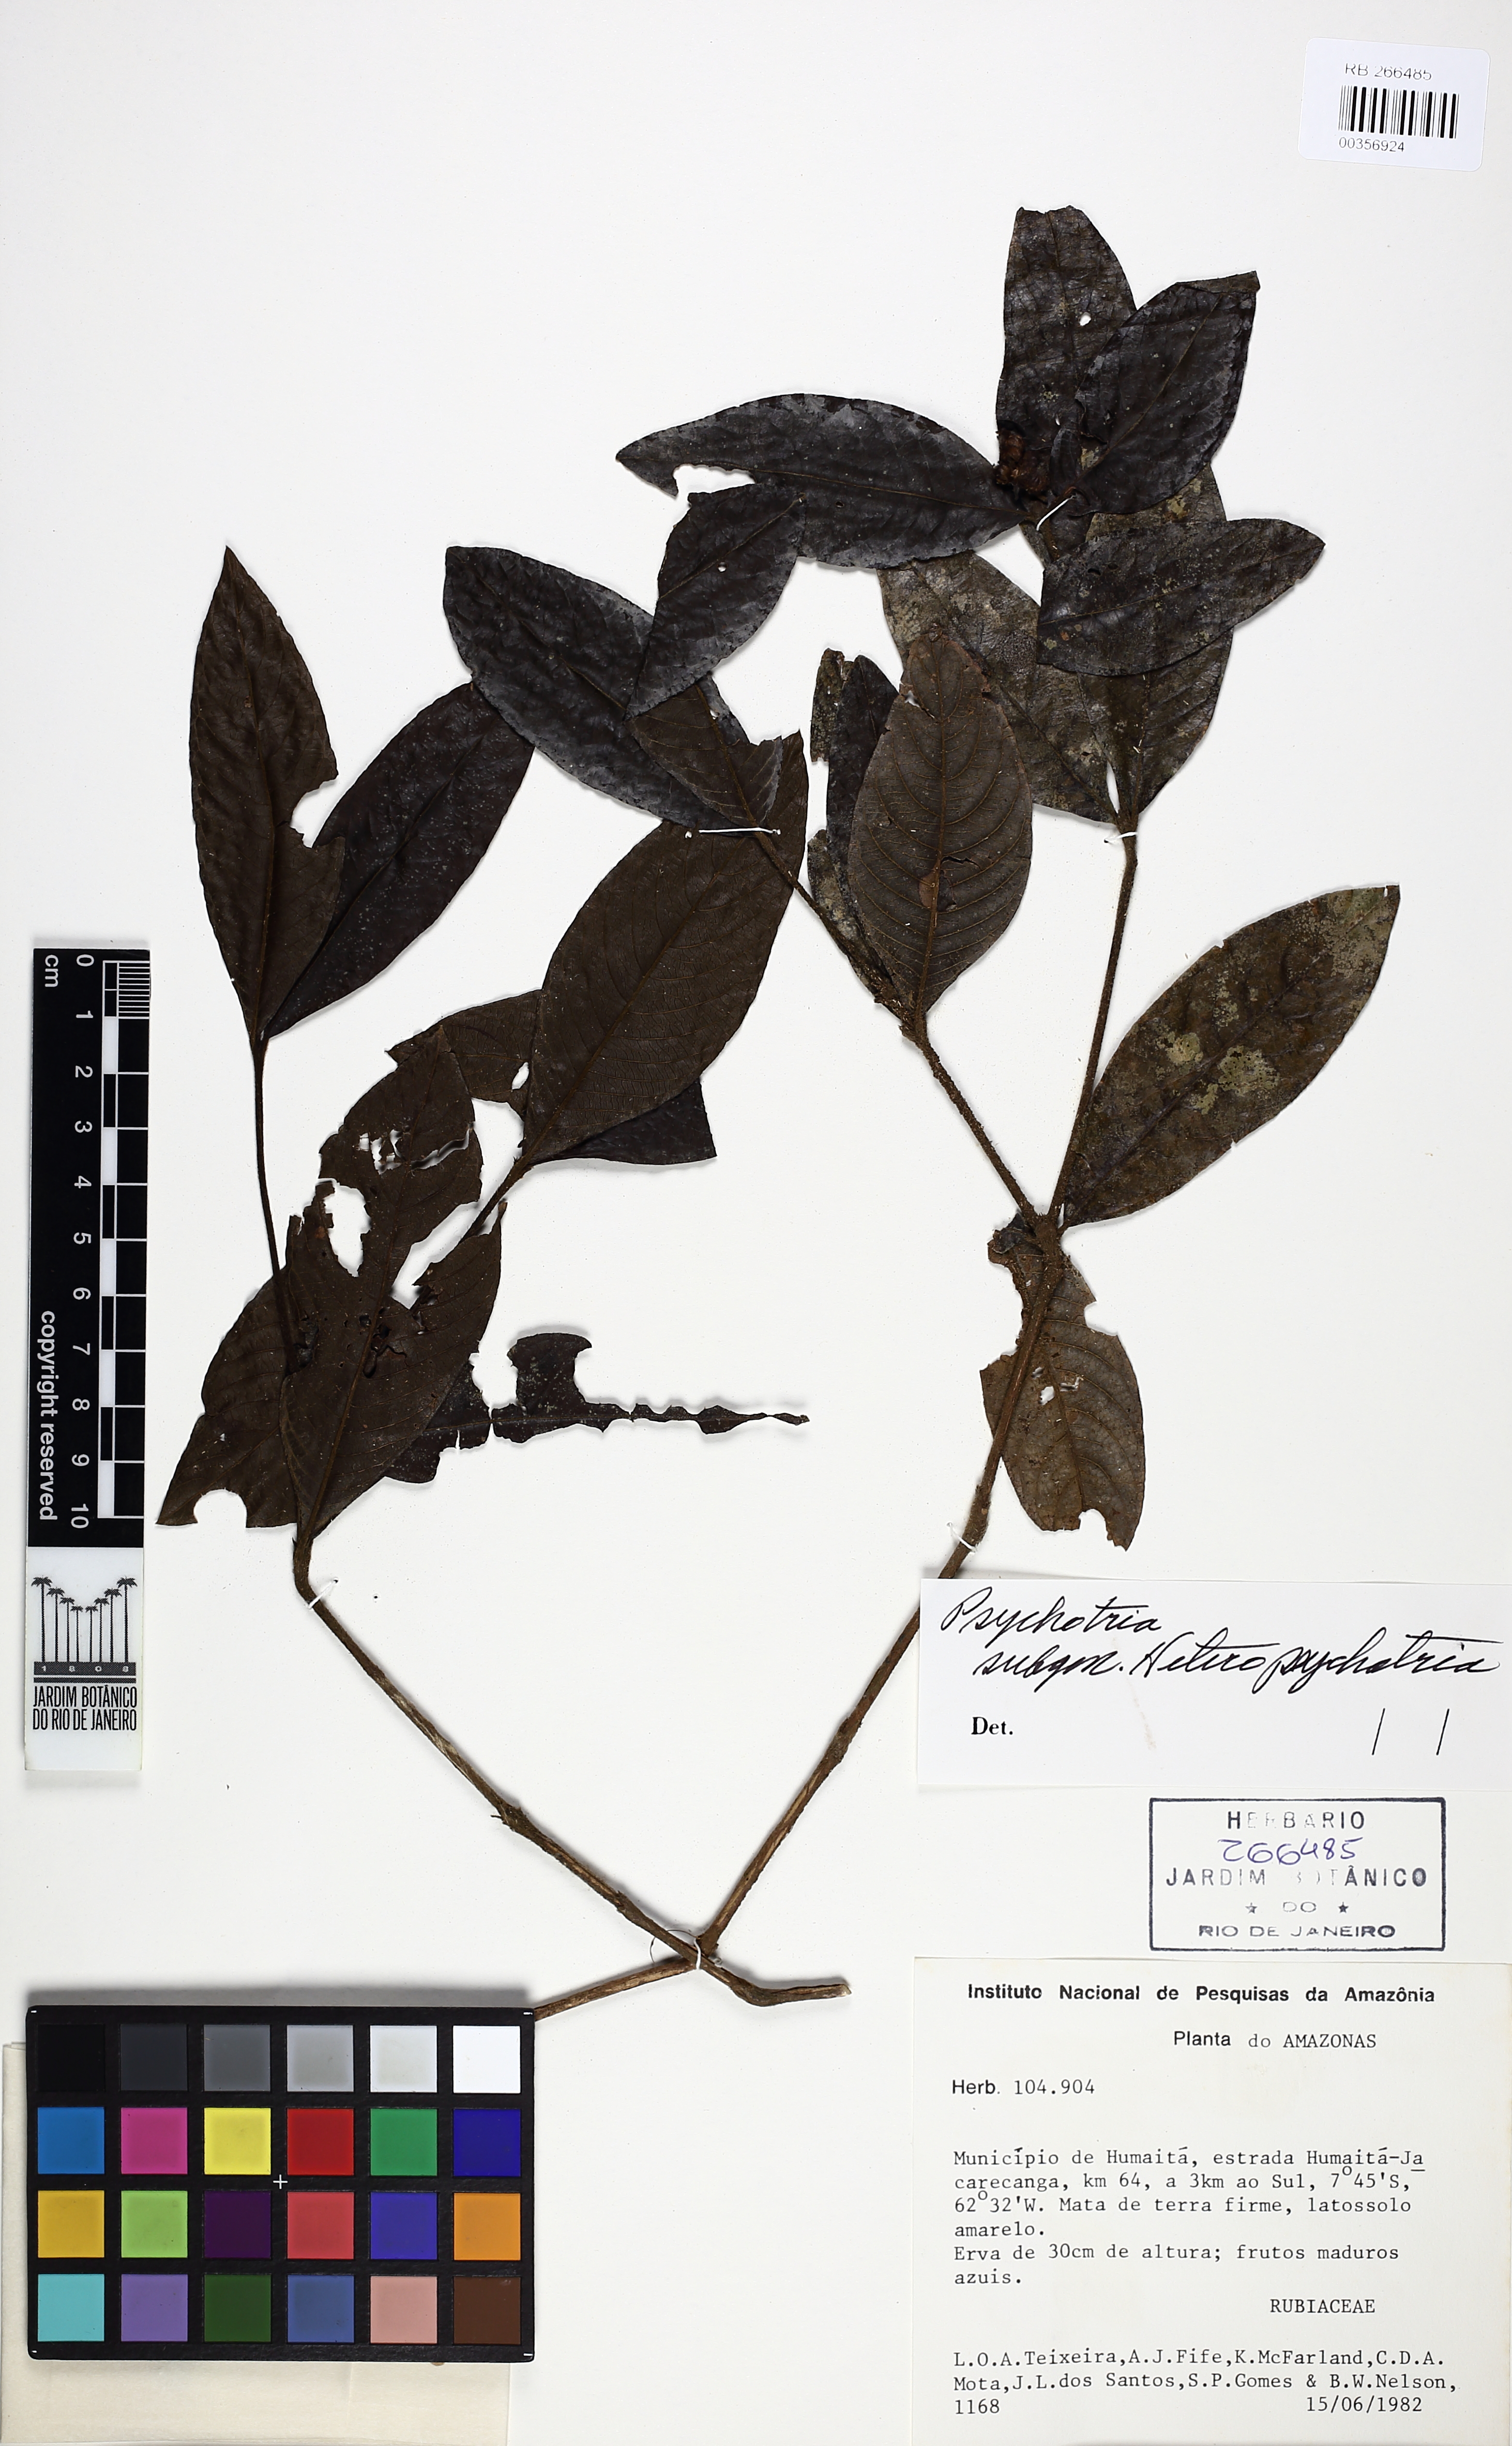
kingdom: Plantae
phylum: Tracheophyta
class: Magnoliopsida
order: Gentianales
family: Rubiaceae
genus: Psychotria
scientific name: Psychotria
